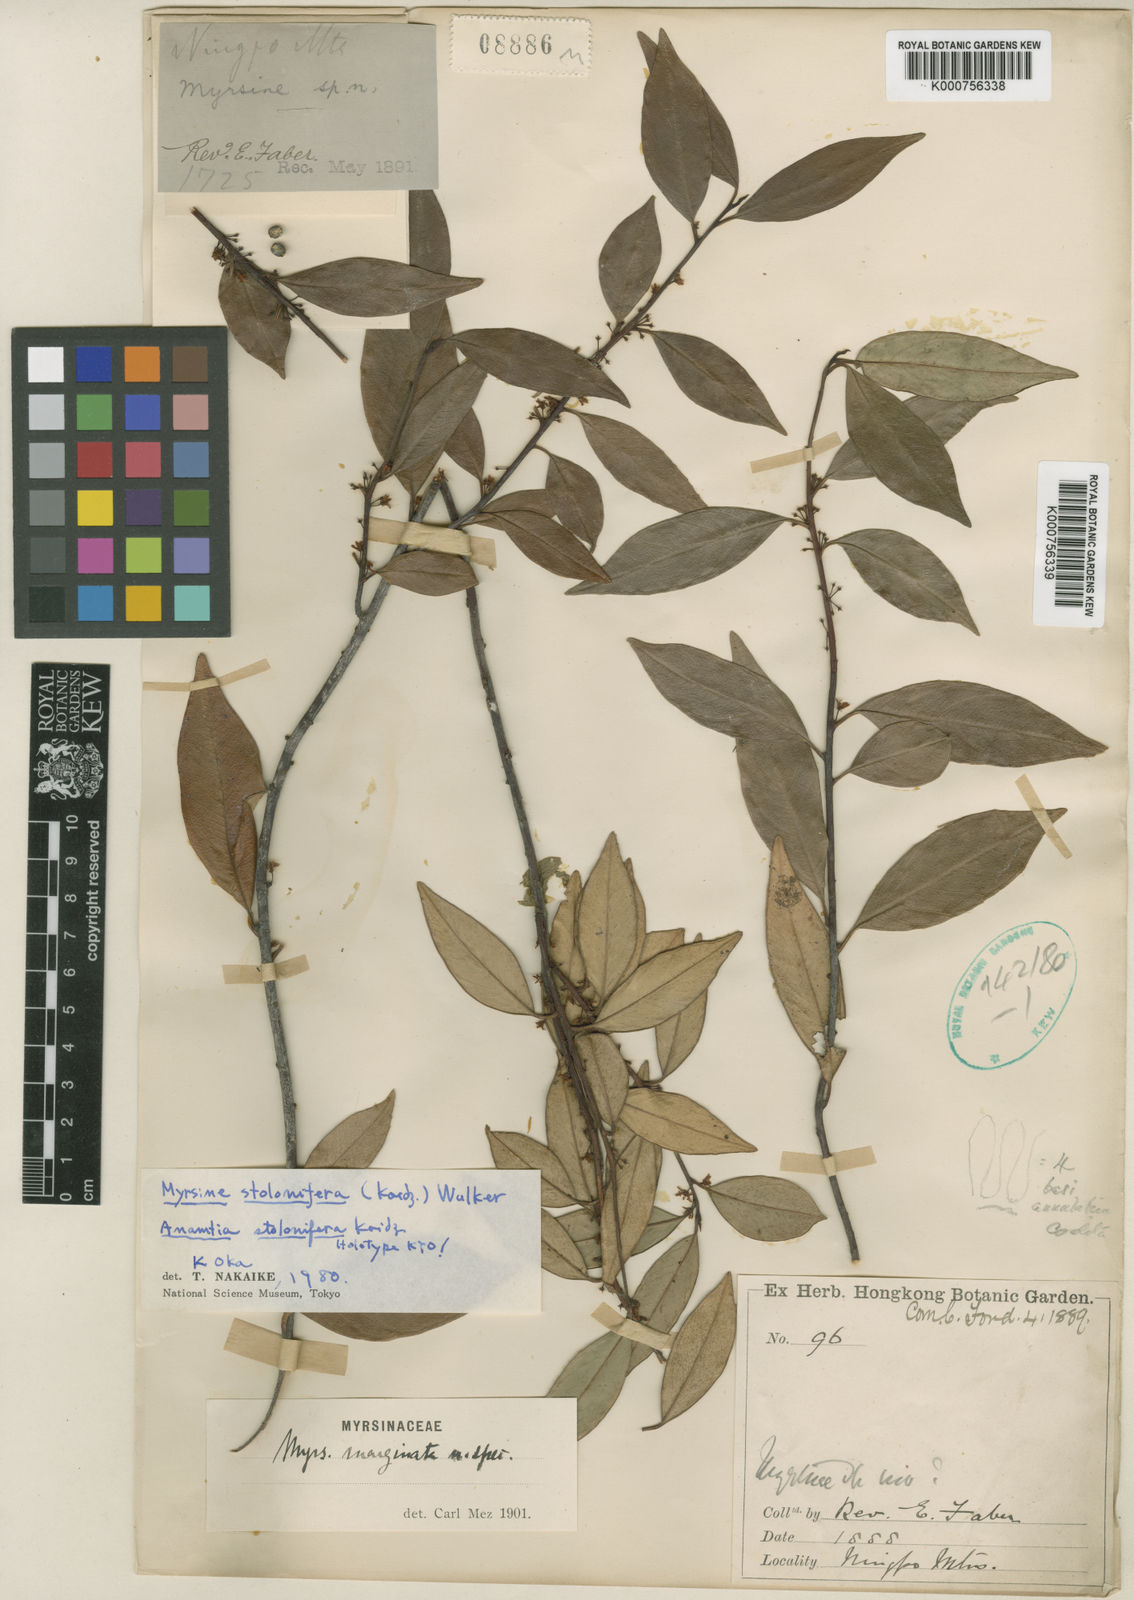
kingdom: Plantae
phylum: Tracheophyta
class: Magnoliopsida
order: Ericales
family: Primulaceae
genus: Myrsine
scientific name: Myrsine stolonifera
